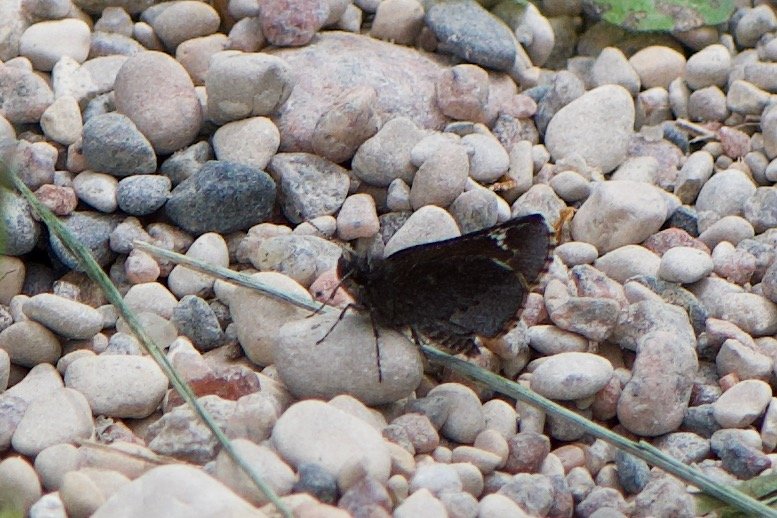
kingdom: Animalia
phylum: Arthropoda
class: Insecta
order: Lepidoptera
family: Hesperiidae
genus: Mastor
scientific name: Mastor vialis
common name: Common Roadside-Skipper
